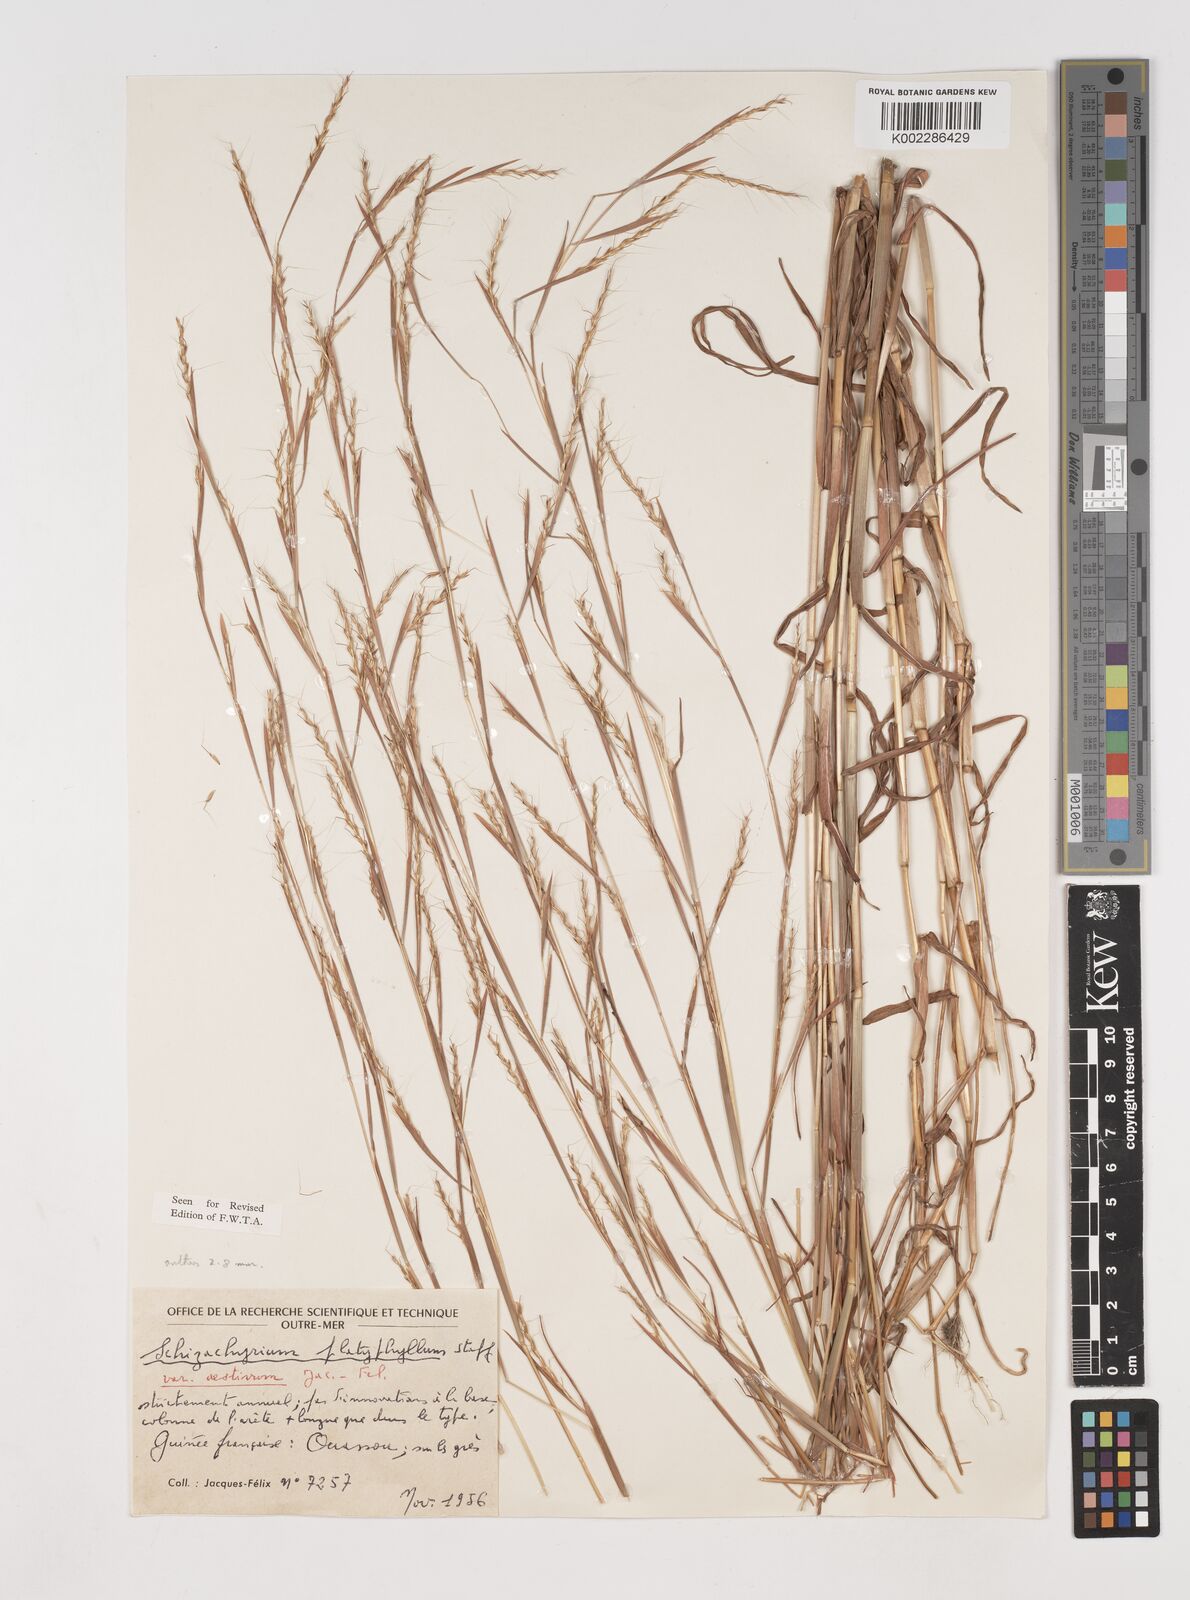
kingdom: Plantae
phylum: Tracheophyta
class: Liliopsida
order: Poales
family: Poaceae
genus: Schizachyrium
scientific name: Schizachyrium platyphyllum
